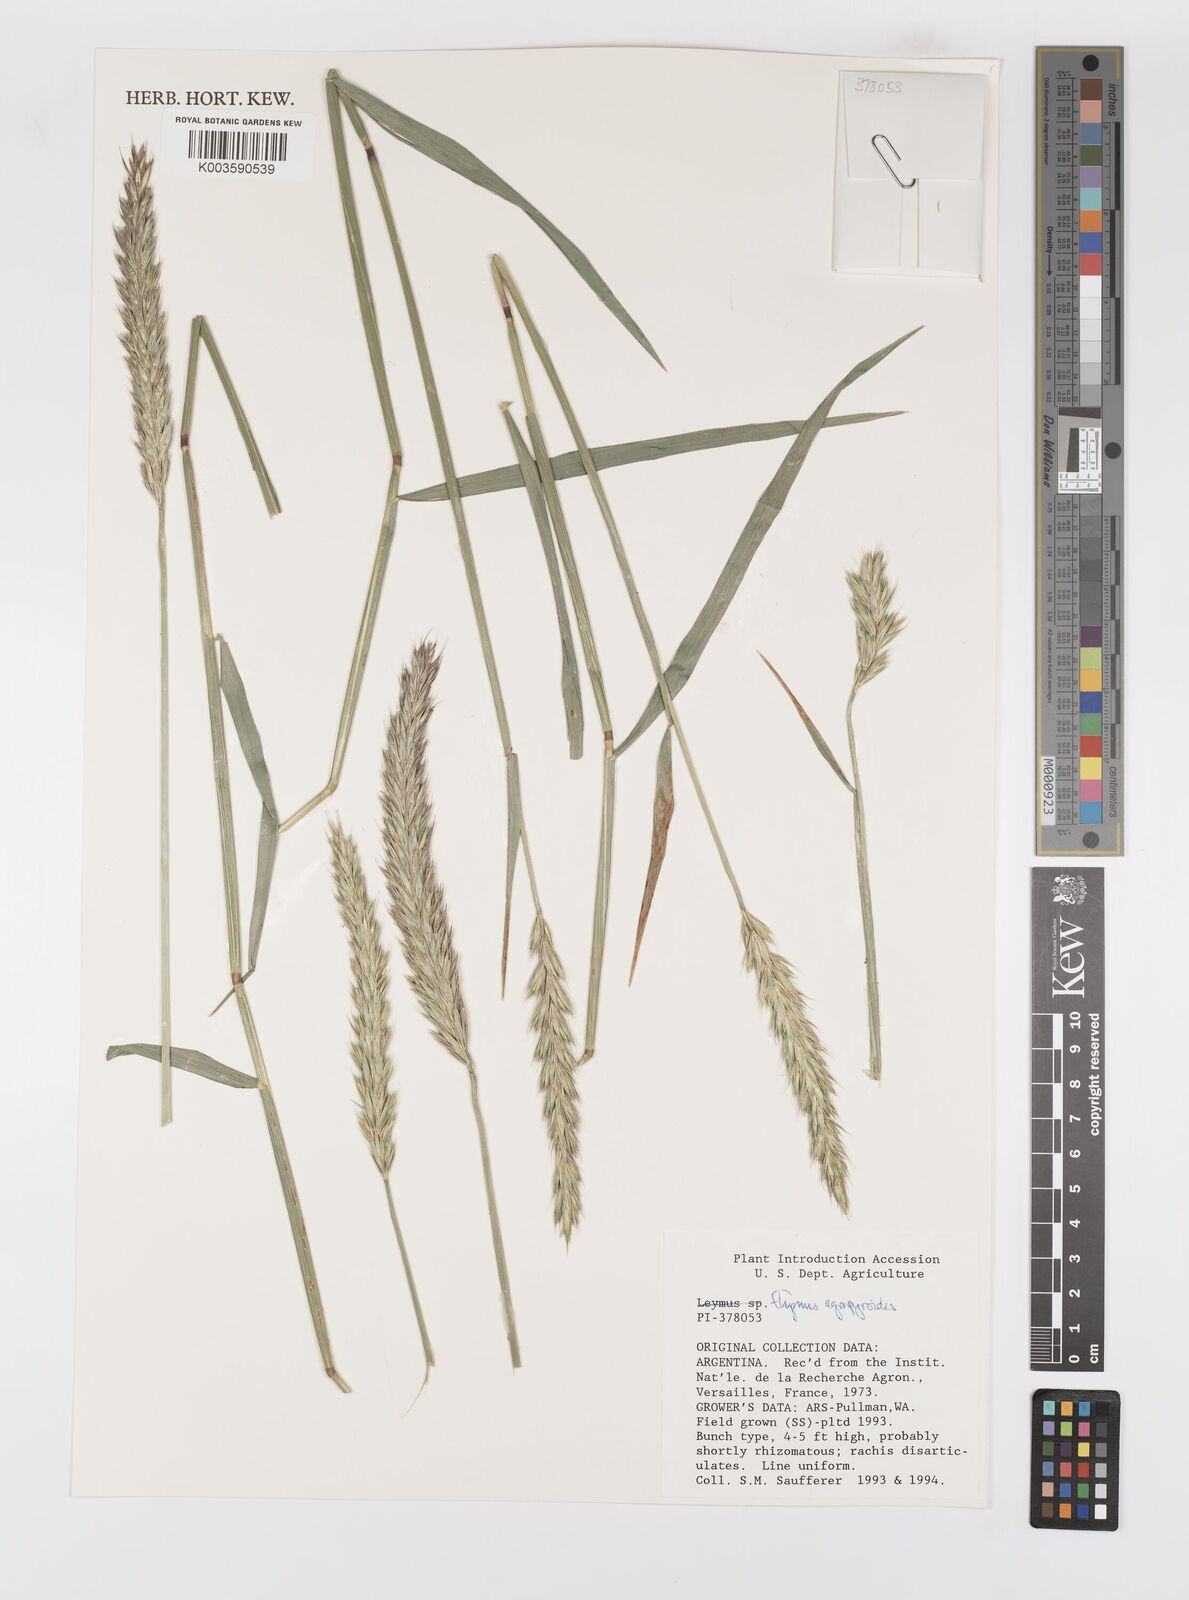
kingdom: Plantae
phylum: Tracheophyta
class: Liliopsida
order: Poales
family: Poaceae
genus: Elymus
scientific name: Elymus angulatus
